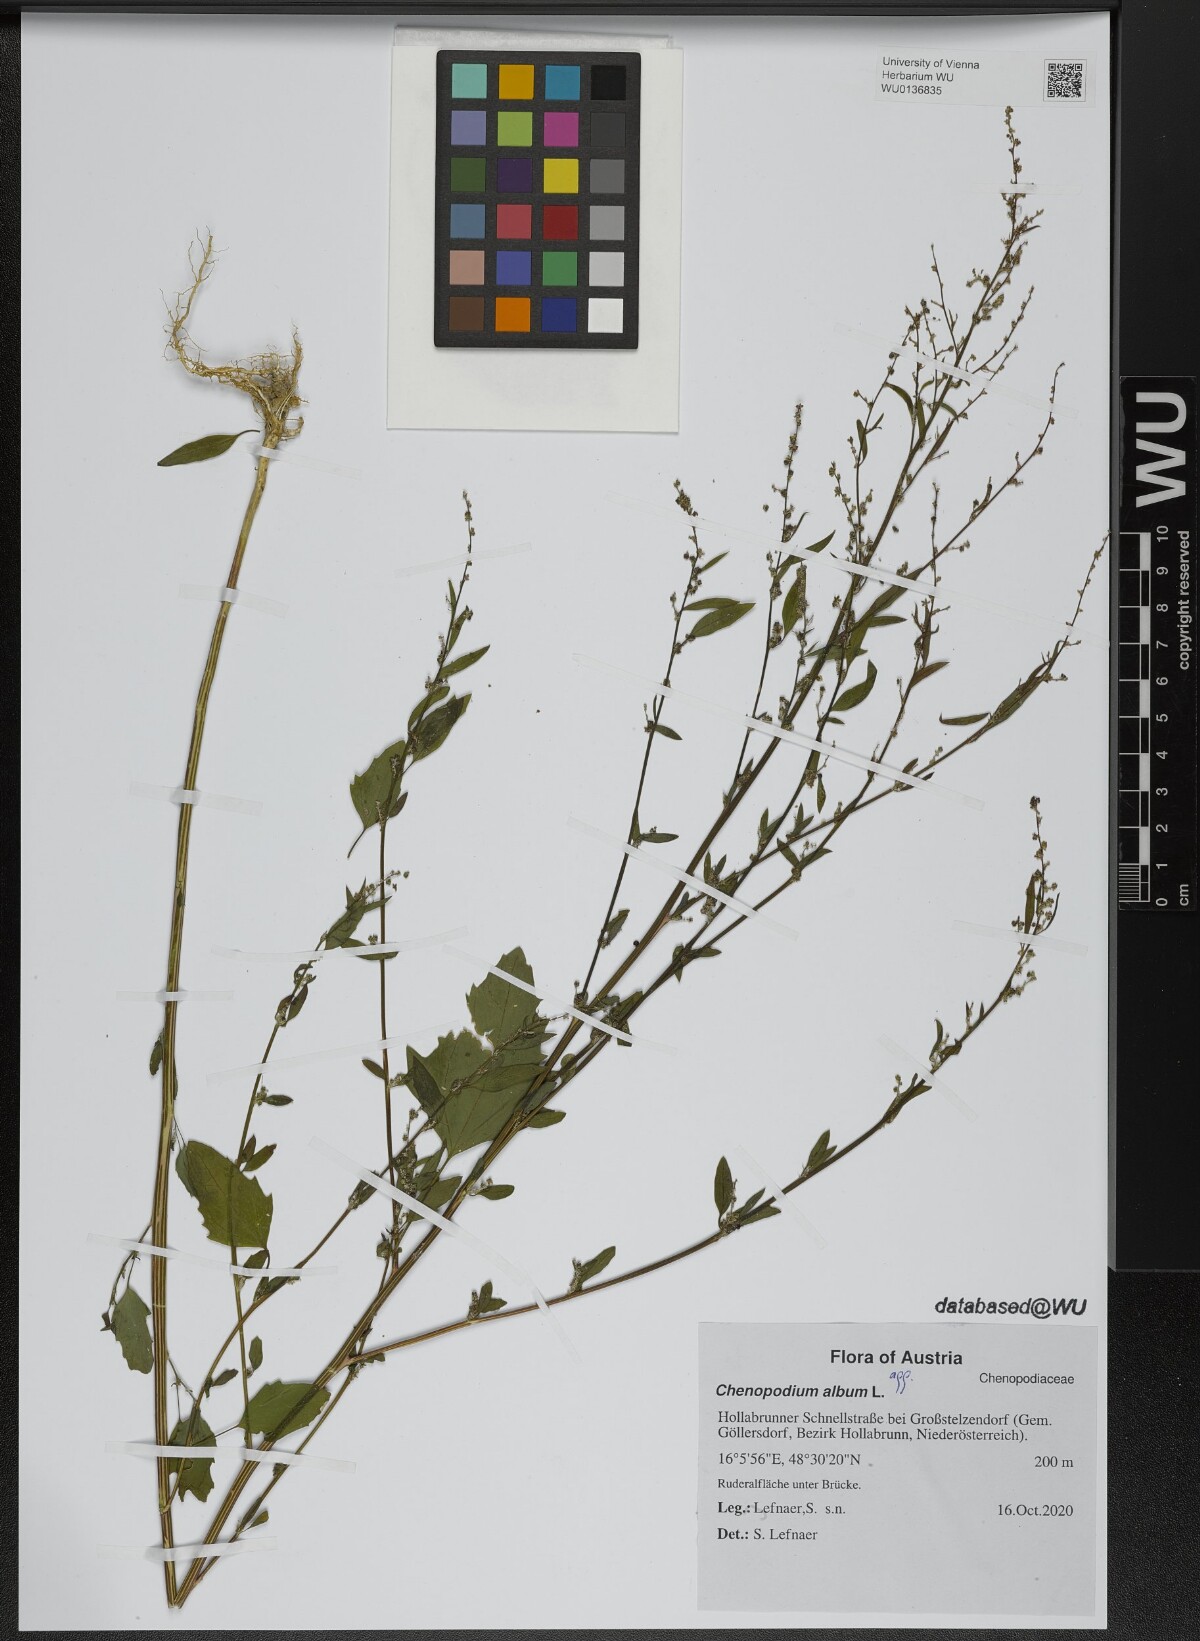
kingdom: Plantae
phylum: Tracheophyta
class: Magnoliopsida
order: Caryophyllales
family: Amaranthaceae
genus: Chenopodium
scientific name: Chenopodium album
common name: Fat-hen
